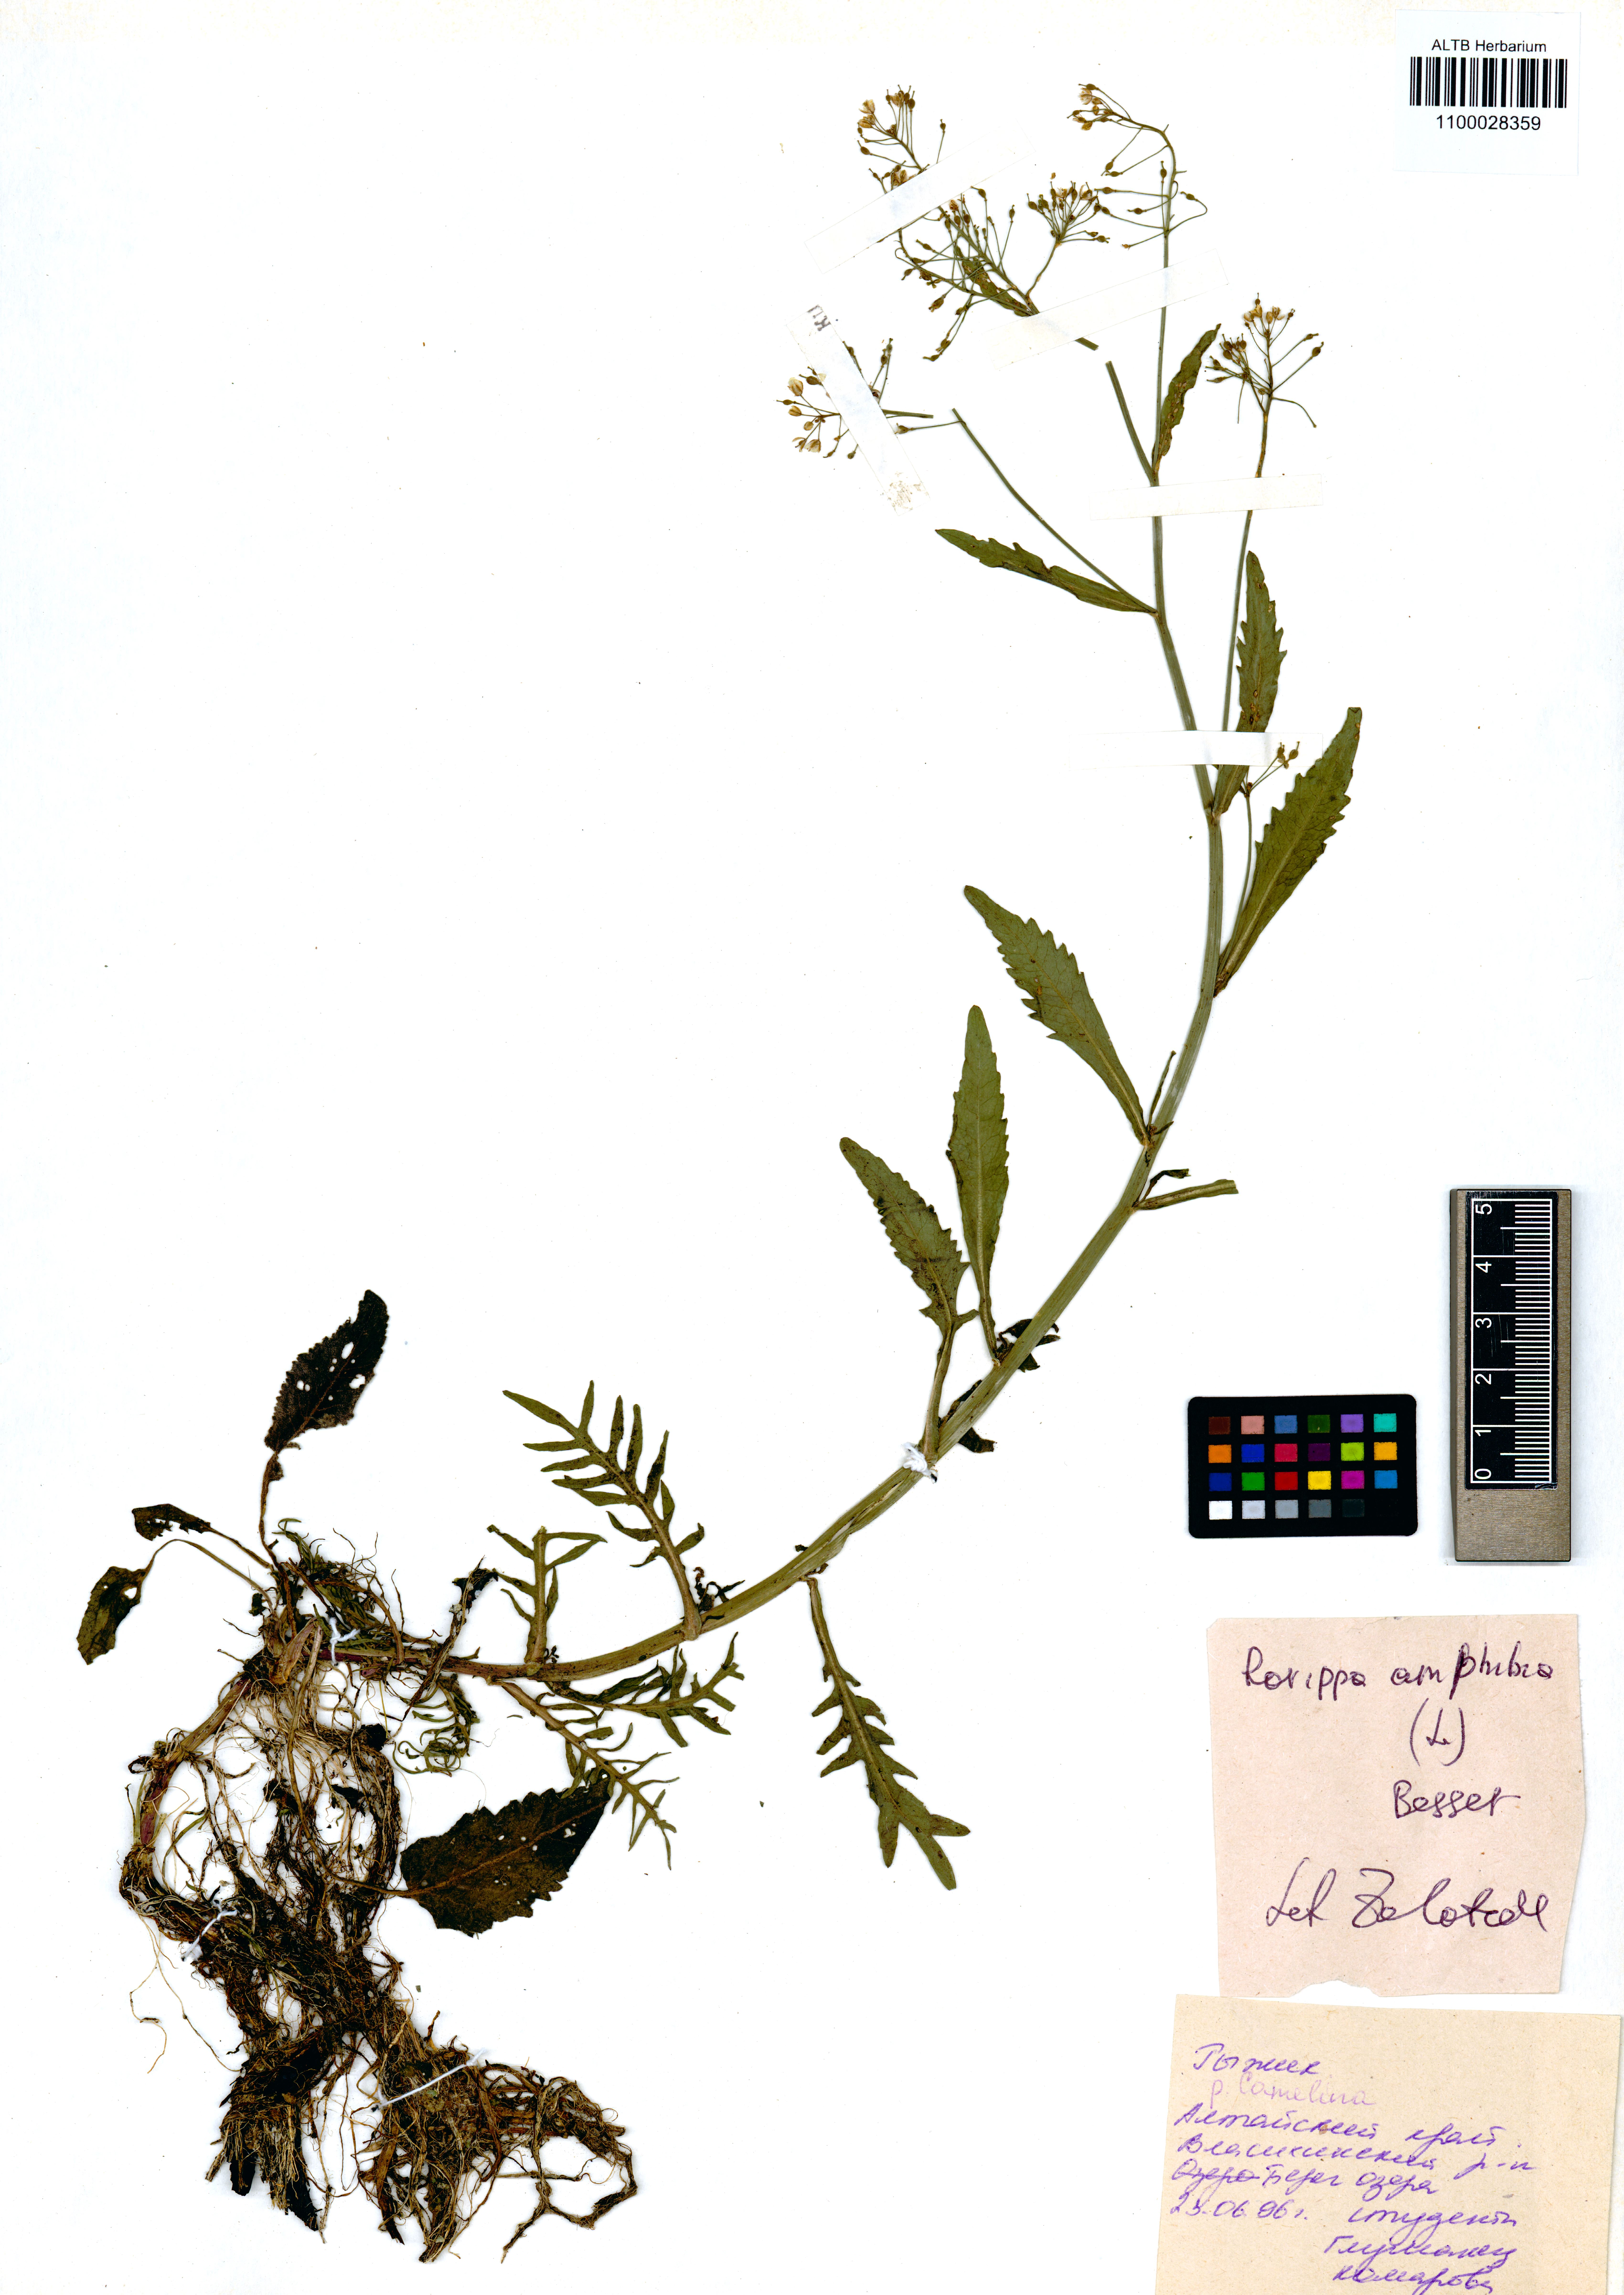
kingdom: Plantae
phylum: Tracheophyta
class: Magnoliopsida
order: Brassicales
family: Brassicaceae
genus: Rorippa
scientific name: Rorippa amphibia
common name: Great yellow-cress
